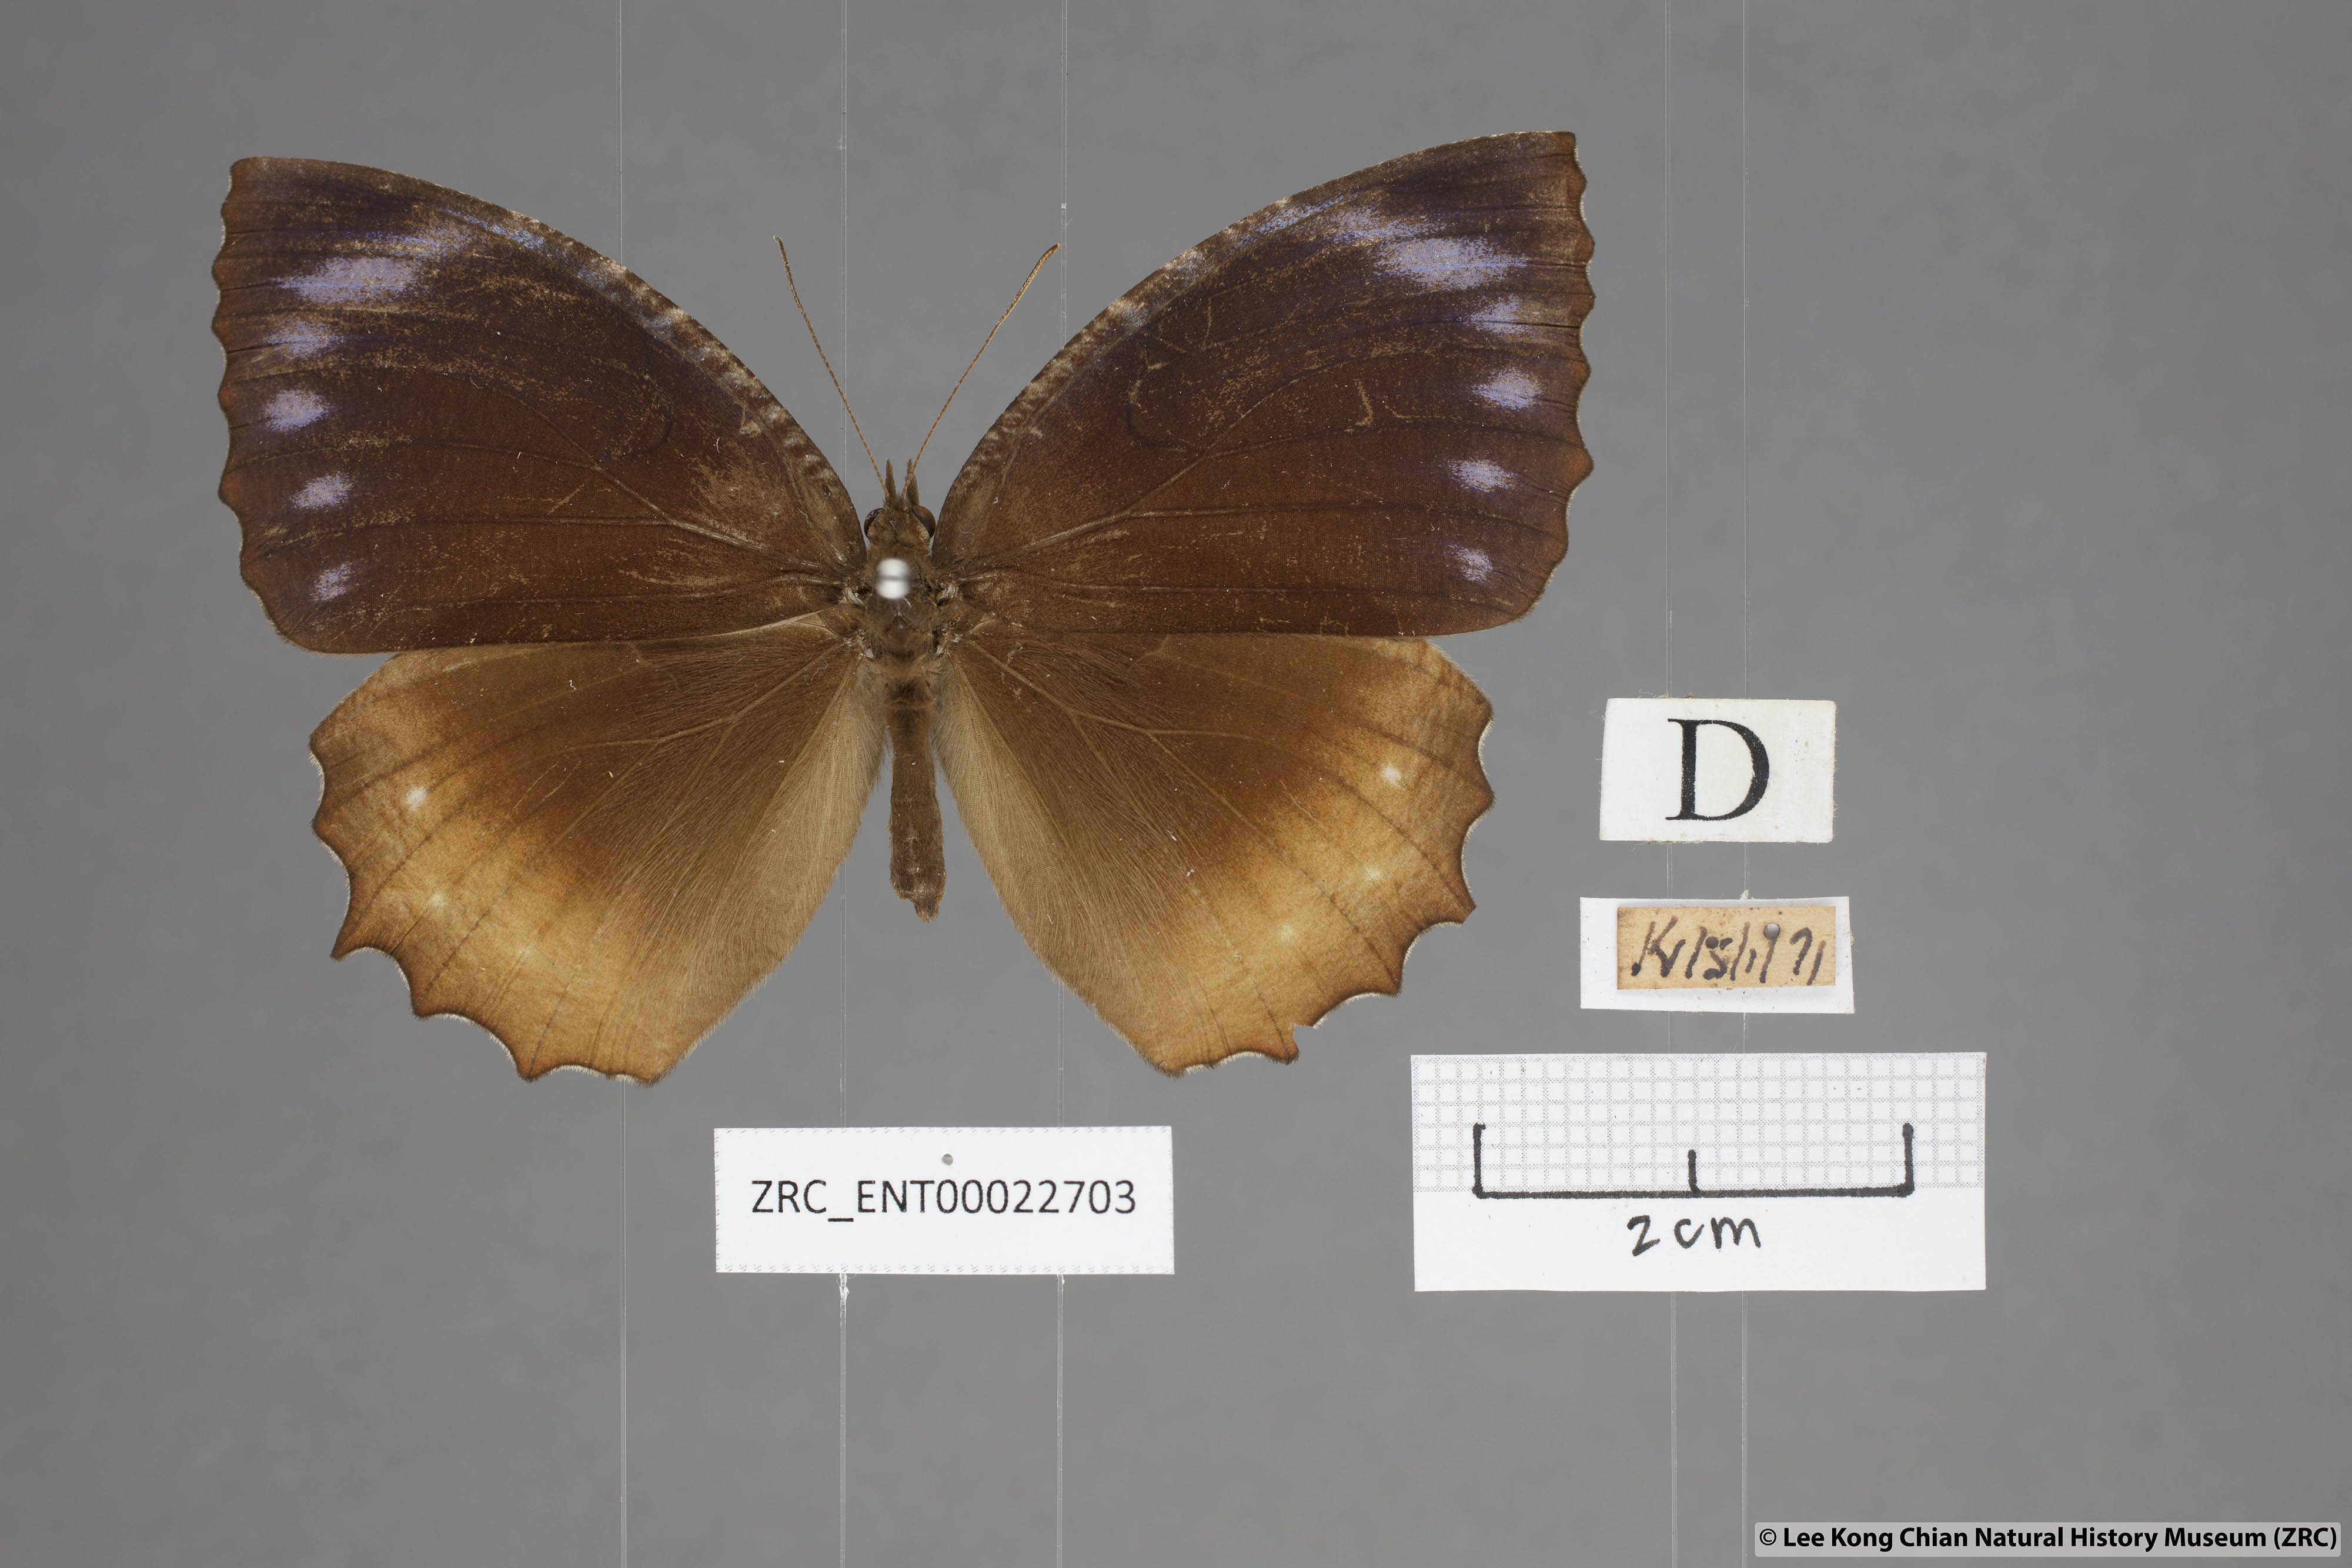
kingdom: Animalia
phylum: Arthropoda
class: Insecta
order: Lepidoptera
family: Nymphalidae
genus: Elymnias
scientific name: Elymnias hypermnestra
